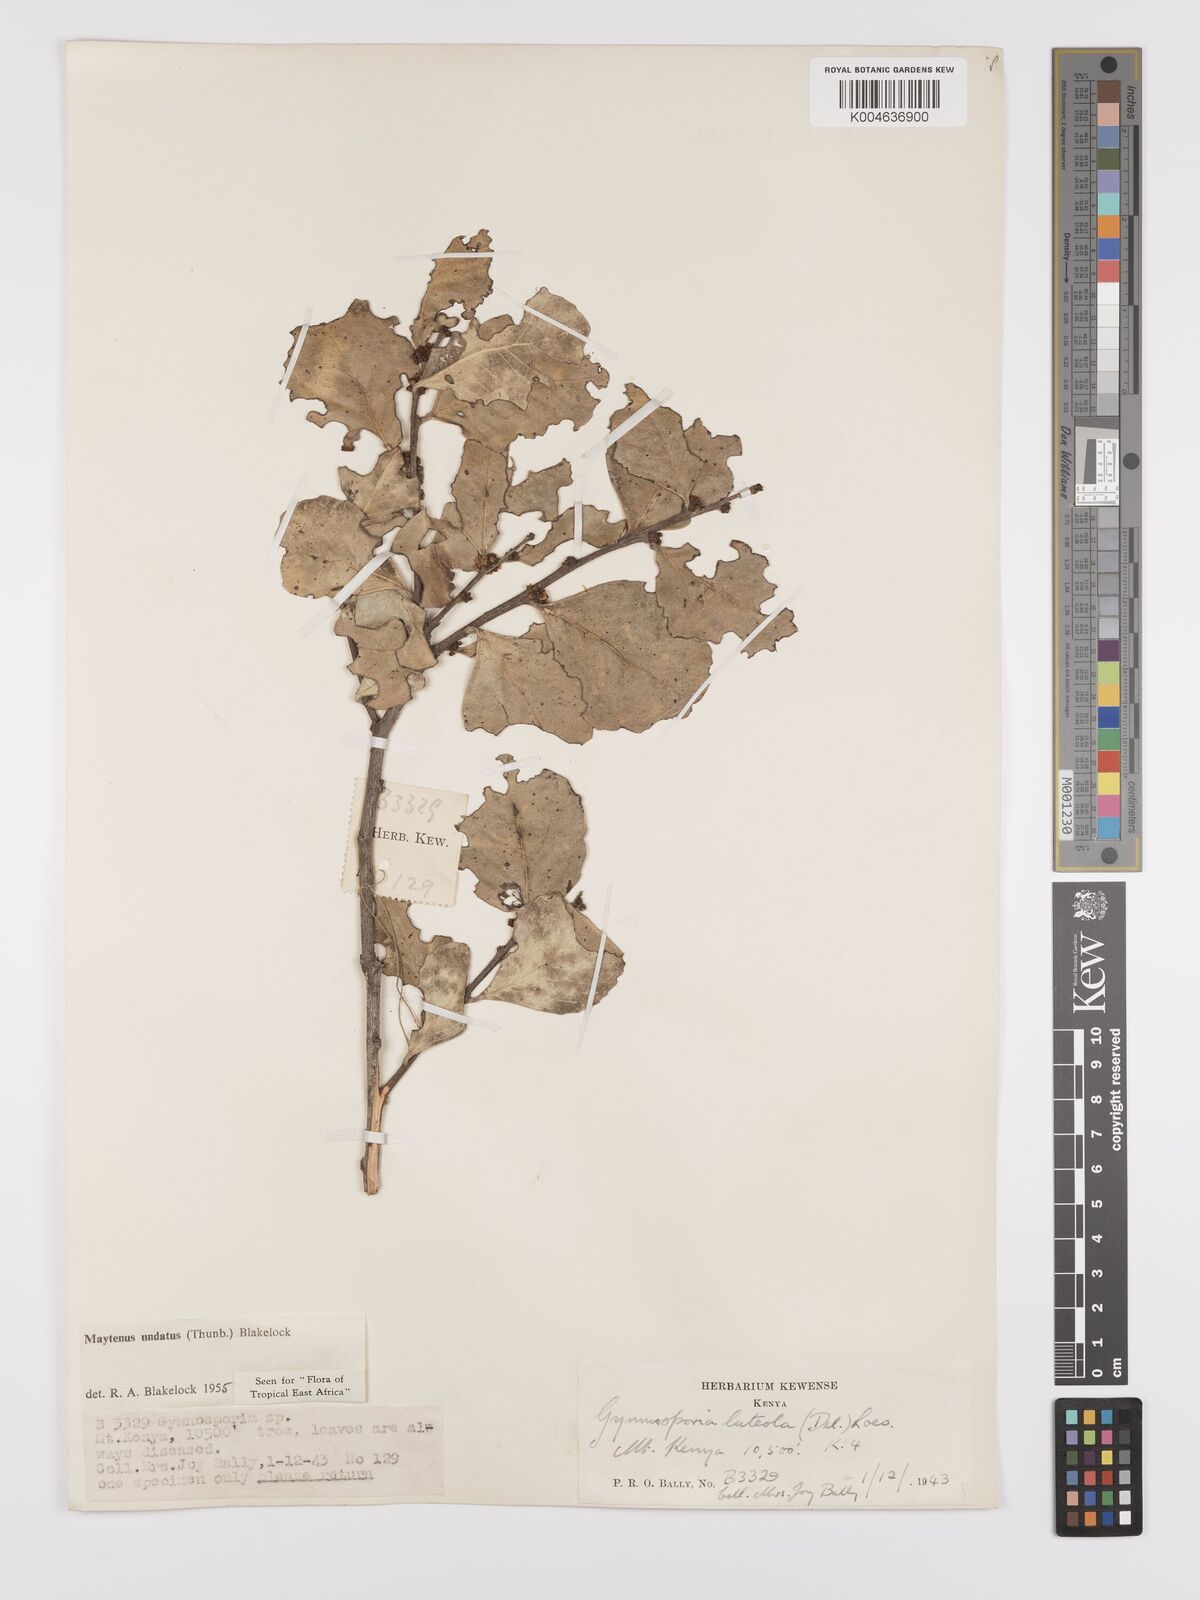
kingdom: Plantae
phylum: Tracheophyta
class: Magnoliopsida
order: Celastrales
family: Celastraceae
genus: Gymnosporia
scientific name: Gymnosporia undata
